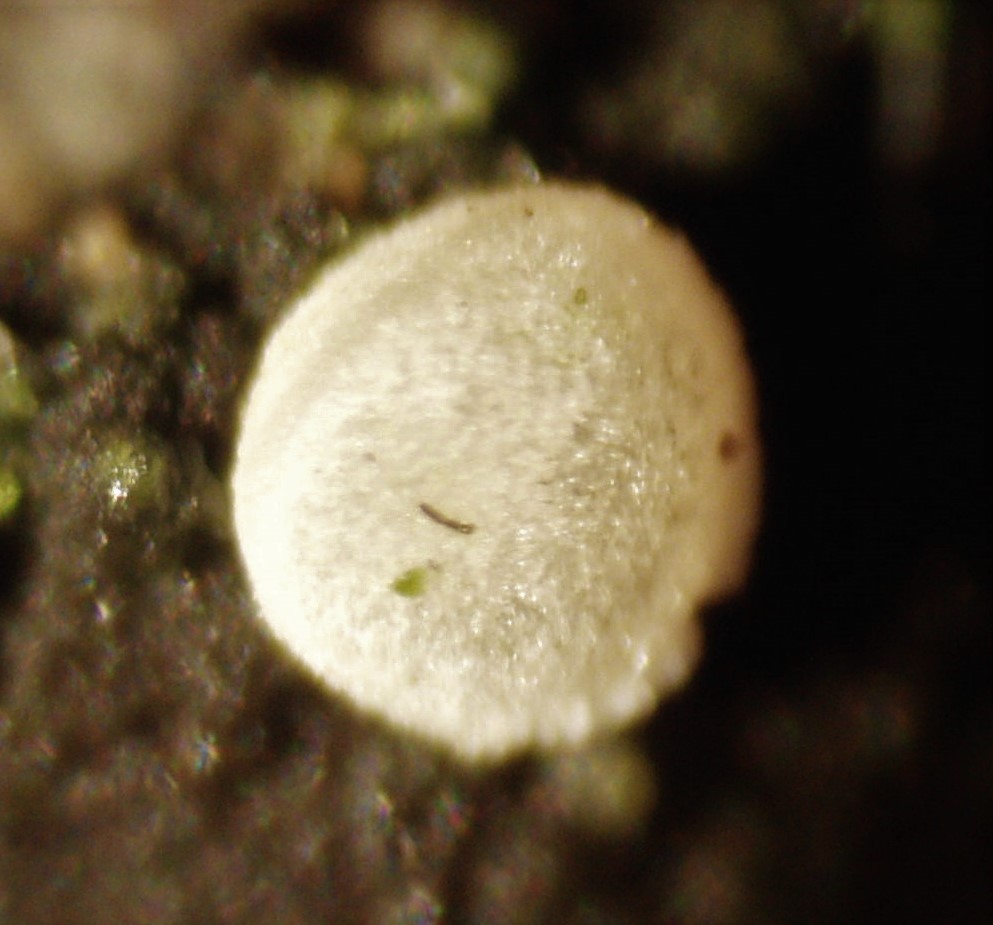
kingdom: Fungi
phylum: Ascomycota
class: Leotiomycetes
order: Helotiales
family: Hyaloscyphaceae
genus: Polydesmia
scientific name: Polydesmia pruinosa
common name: dunskive
